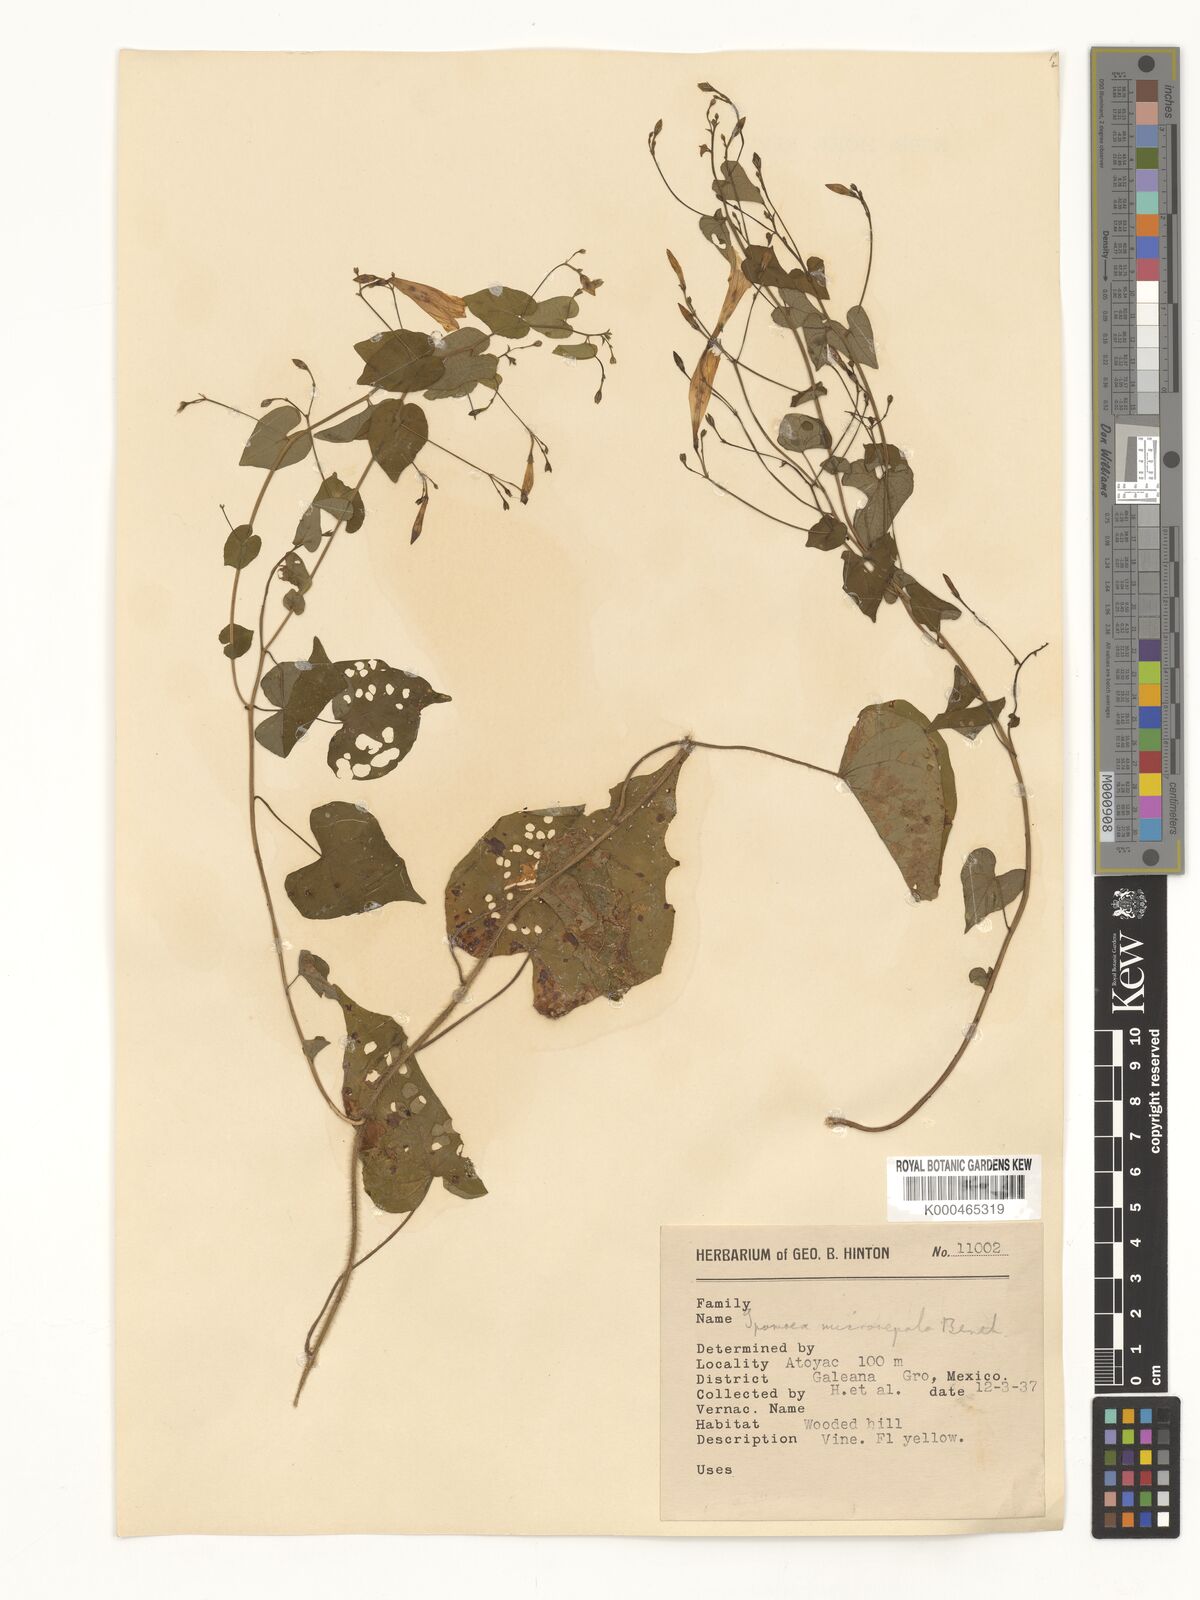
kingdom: Plantae
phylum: Tracheophyta
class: Magnoliopsida
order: Solanales
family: Convolvulaceae
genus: Ipomoea
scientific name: Ipomoea microsepala
